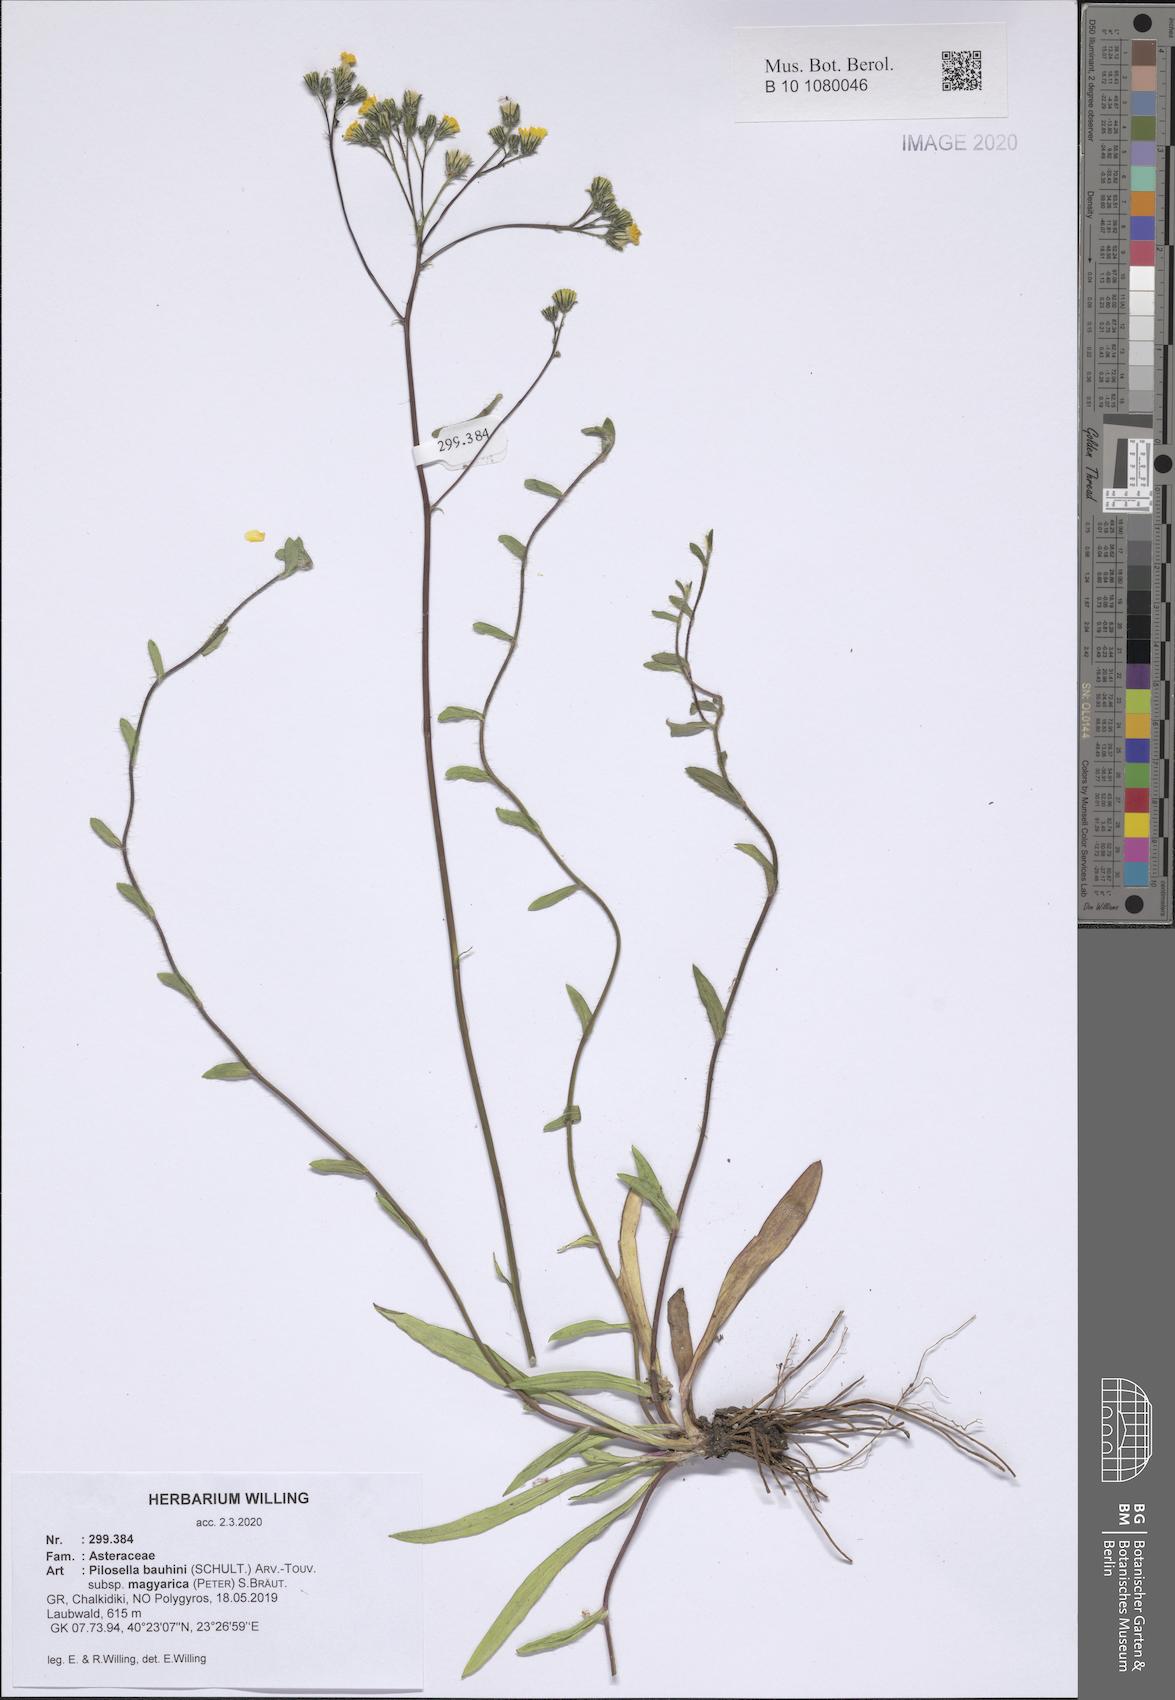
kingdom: Plantae
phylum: Tracheophyta
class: Magnoliopsida
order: Asterales
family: Asteraceae
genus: Pilosella
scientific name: Pilosella bauhini
